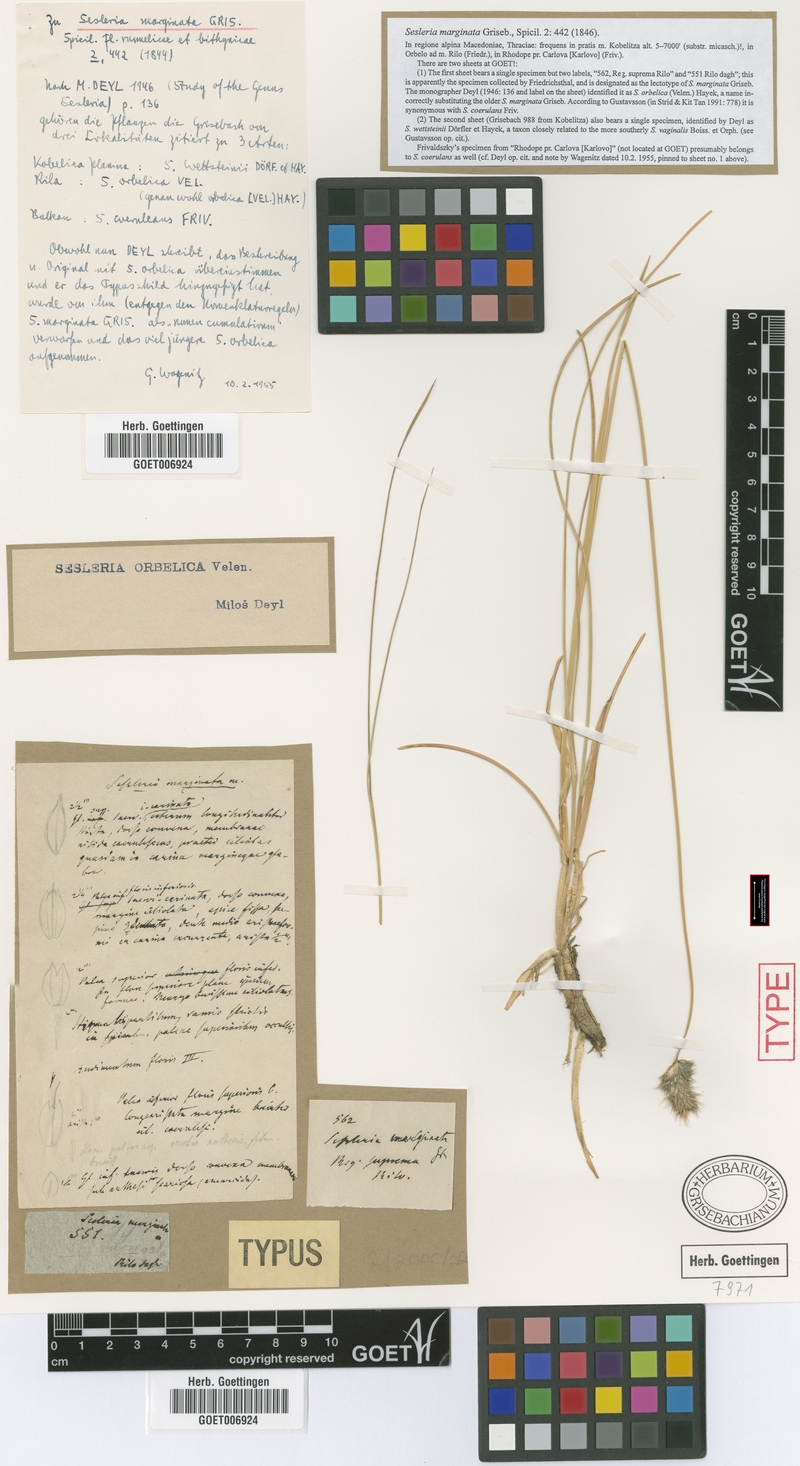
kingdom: Plantae
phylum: Tracheophyta
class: Liliopsida
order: Poales
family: Poaceae
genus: Sesleria
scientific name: Sesleria coerulans
